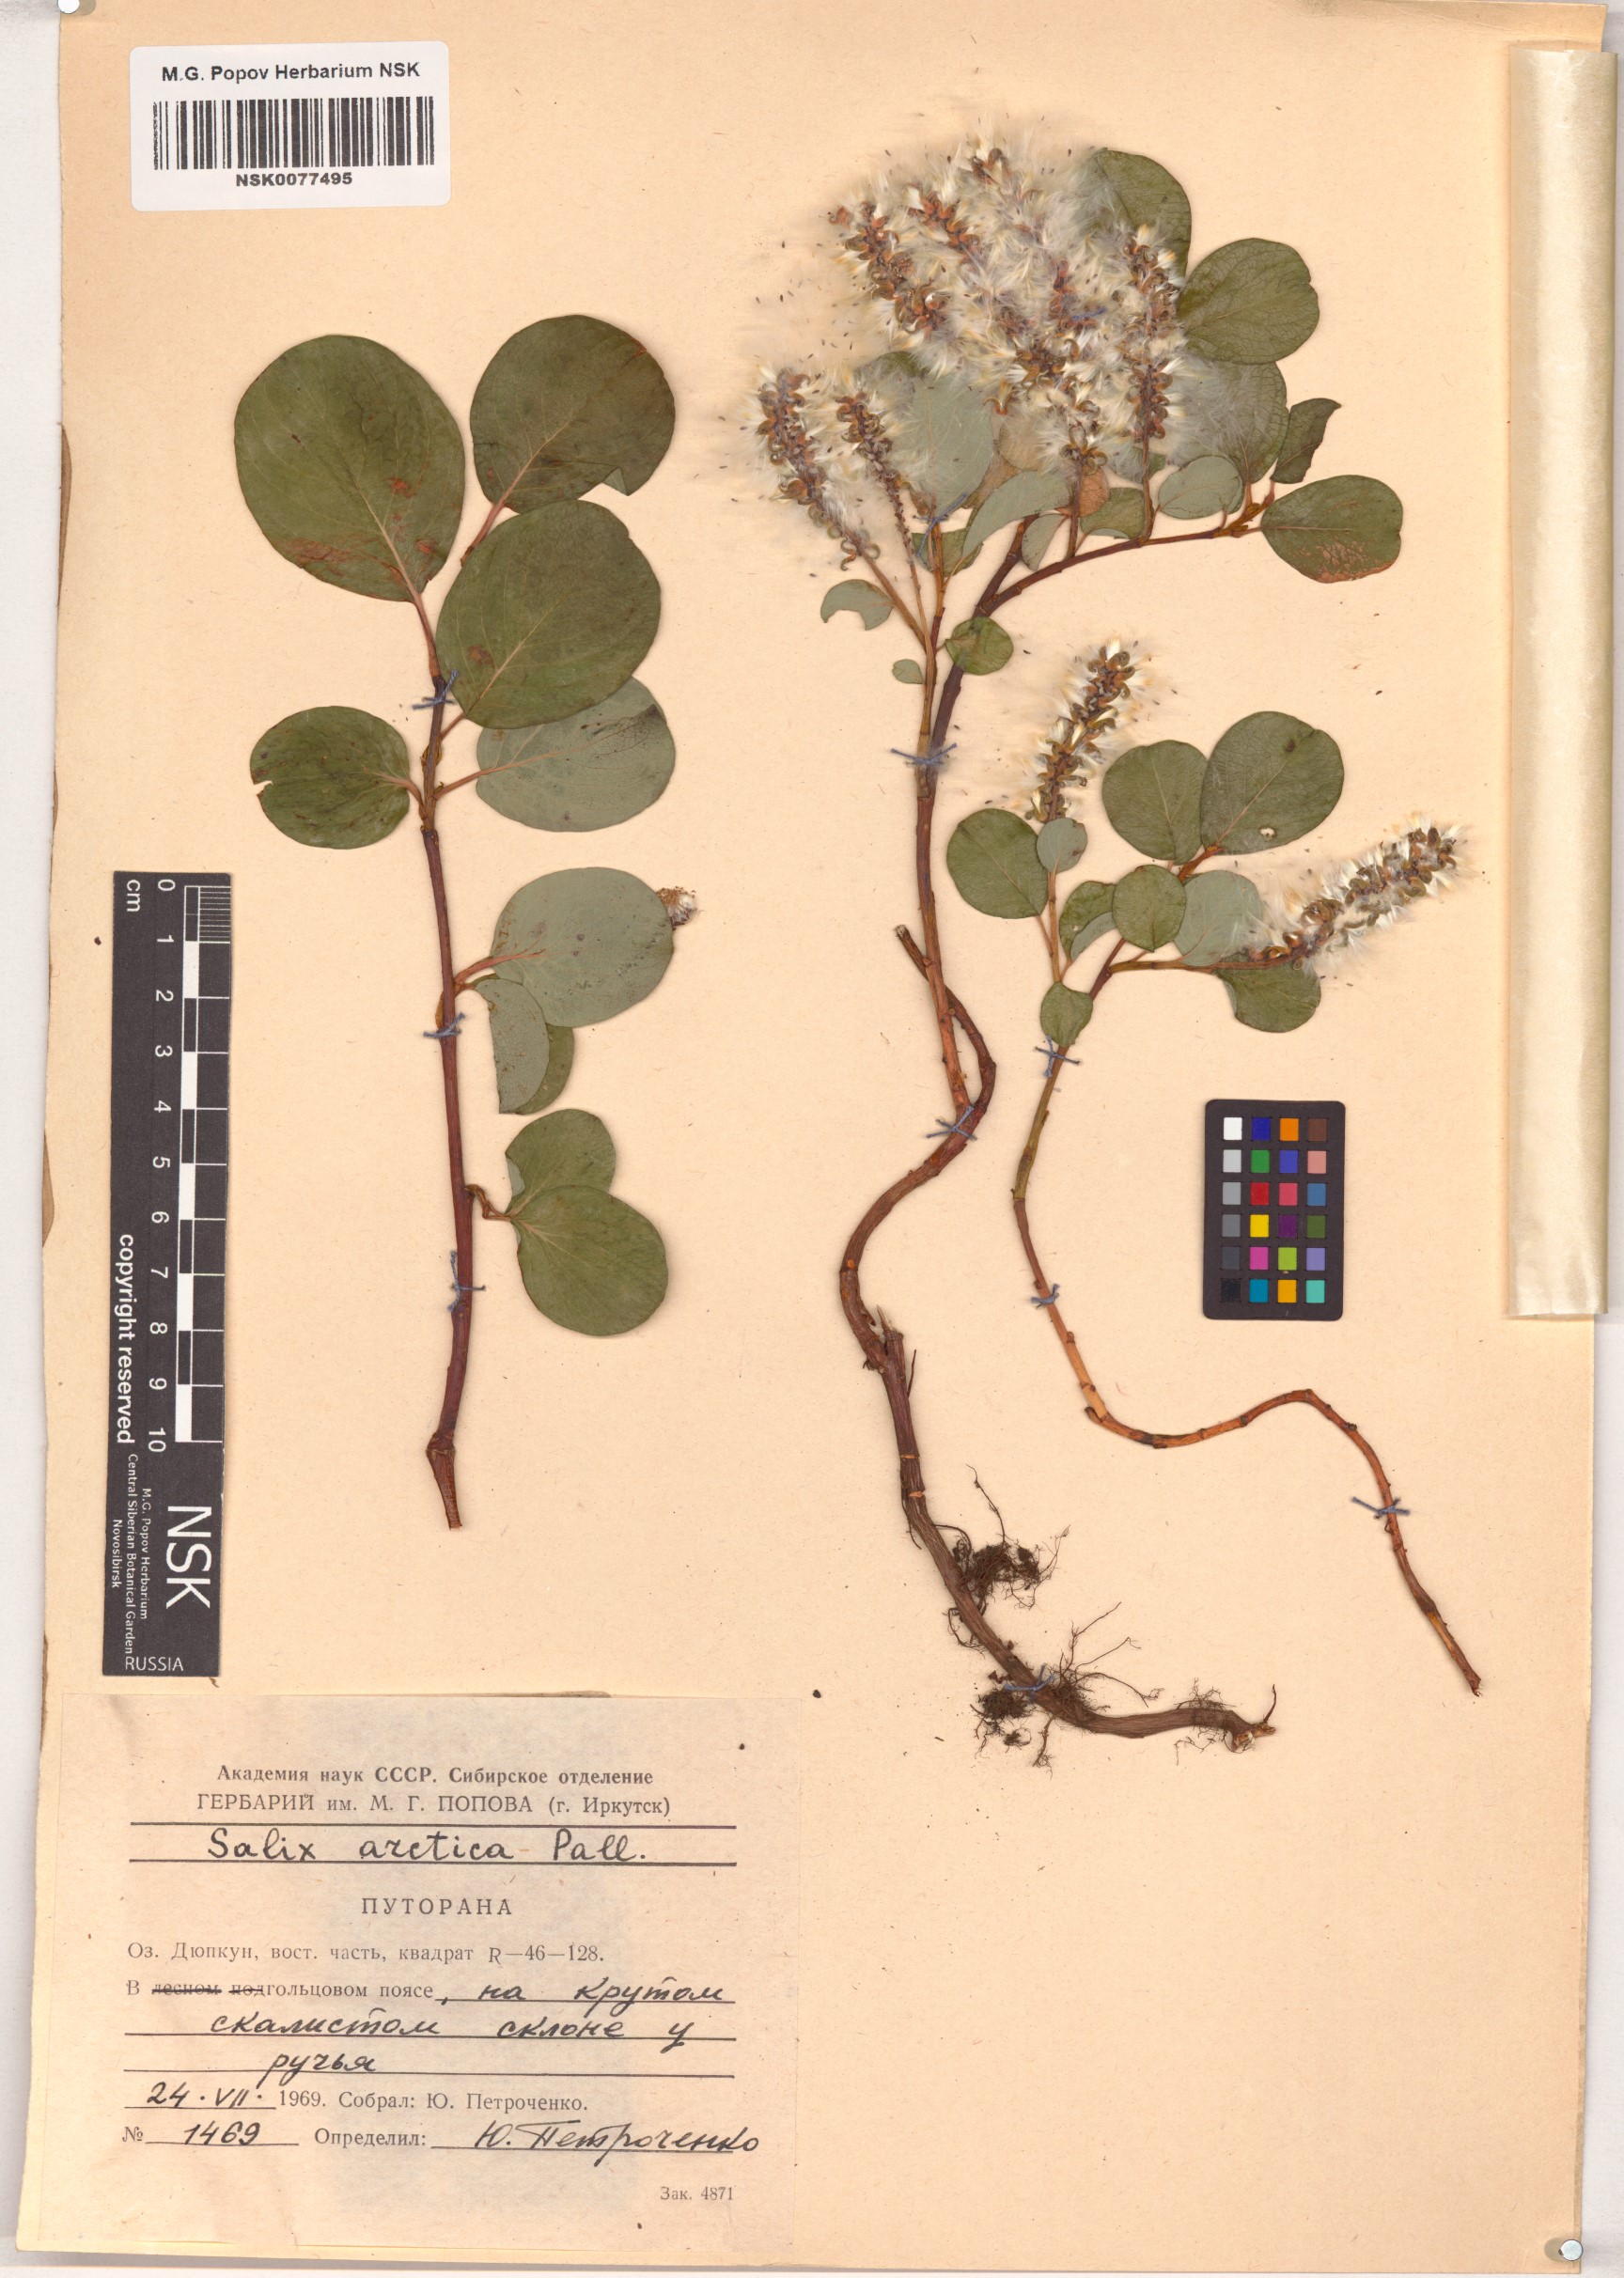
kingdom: Plantae
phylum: Tracheophyta
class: Magnoliopsida
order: Malpighiales
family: Salicaceae
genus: Salix
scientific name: Salix arctica
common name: Arctic willow
